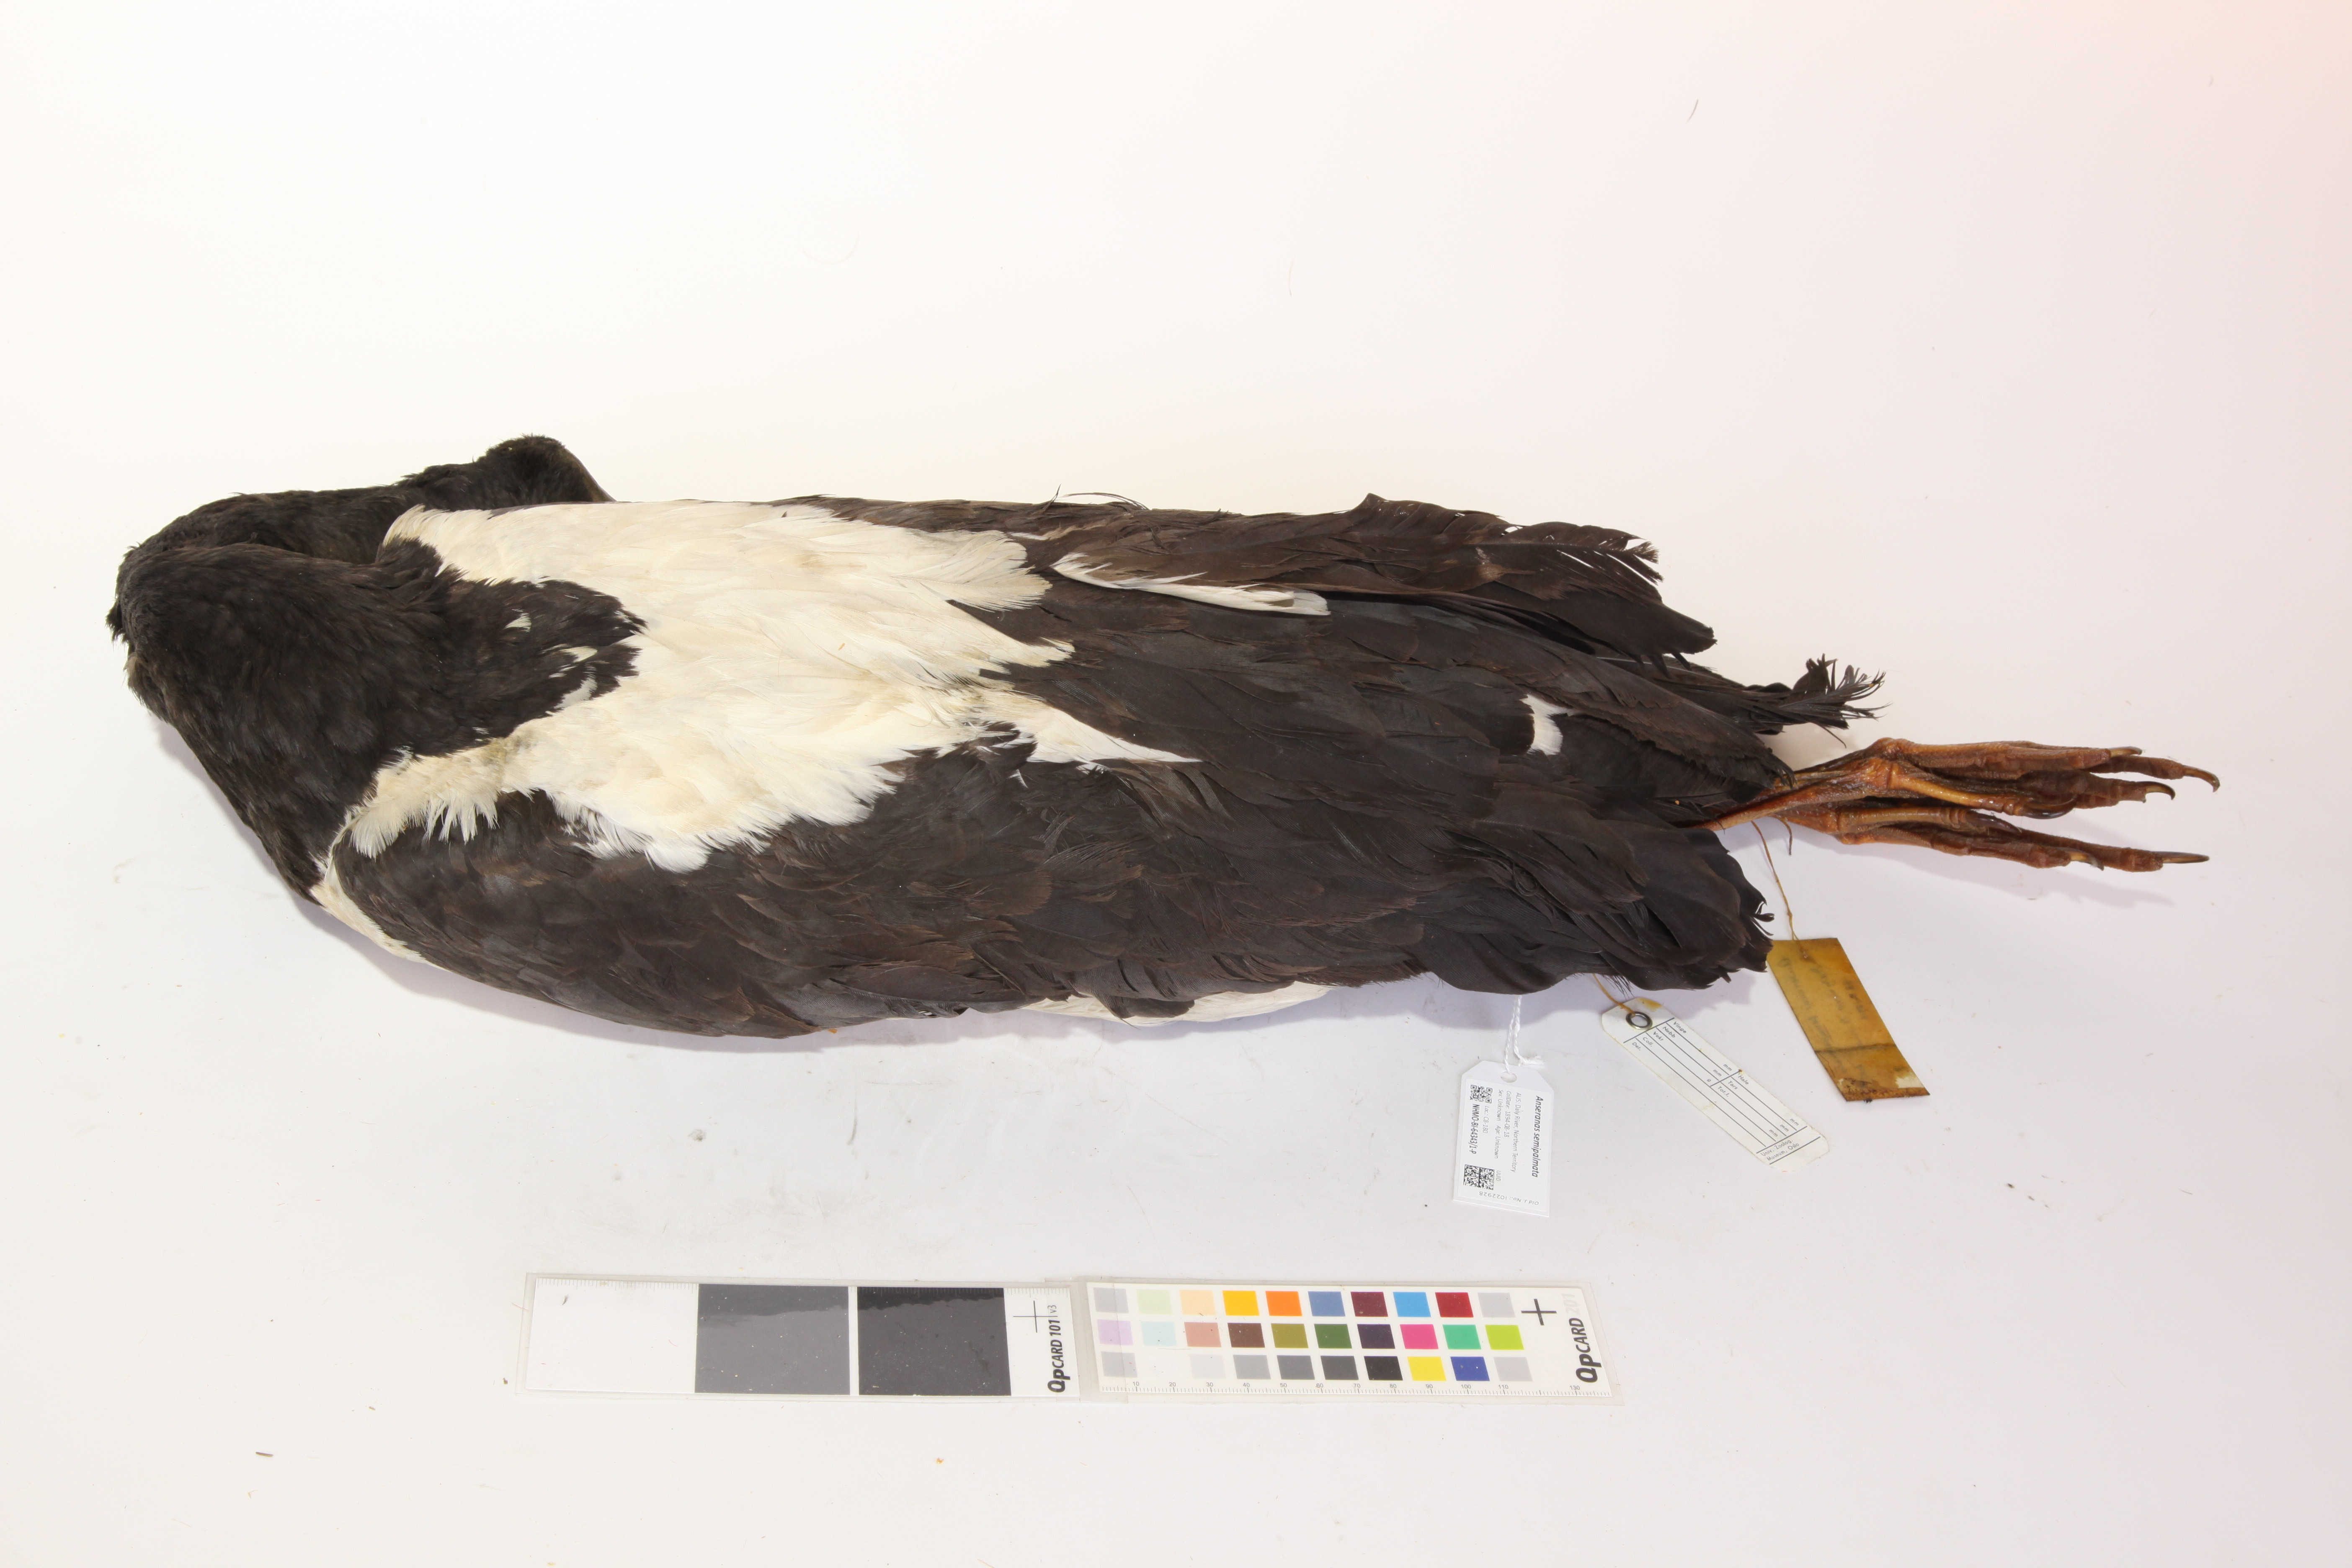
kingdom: Animalia
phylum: Chordata
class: Aves
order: Anseriformes
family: Anseranatidae
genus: Anseranas
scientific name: Anseranas semipalmata
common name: Magpie goose
